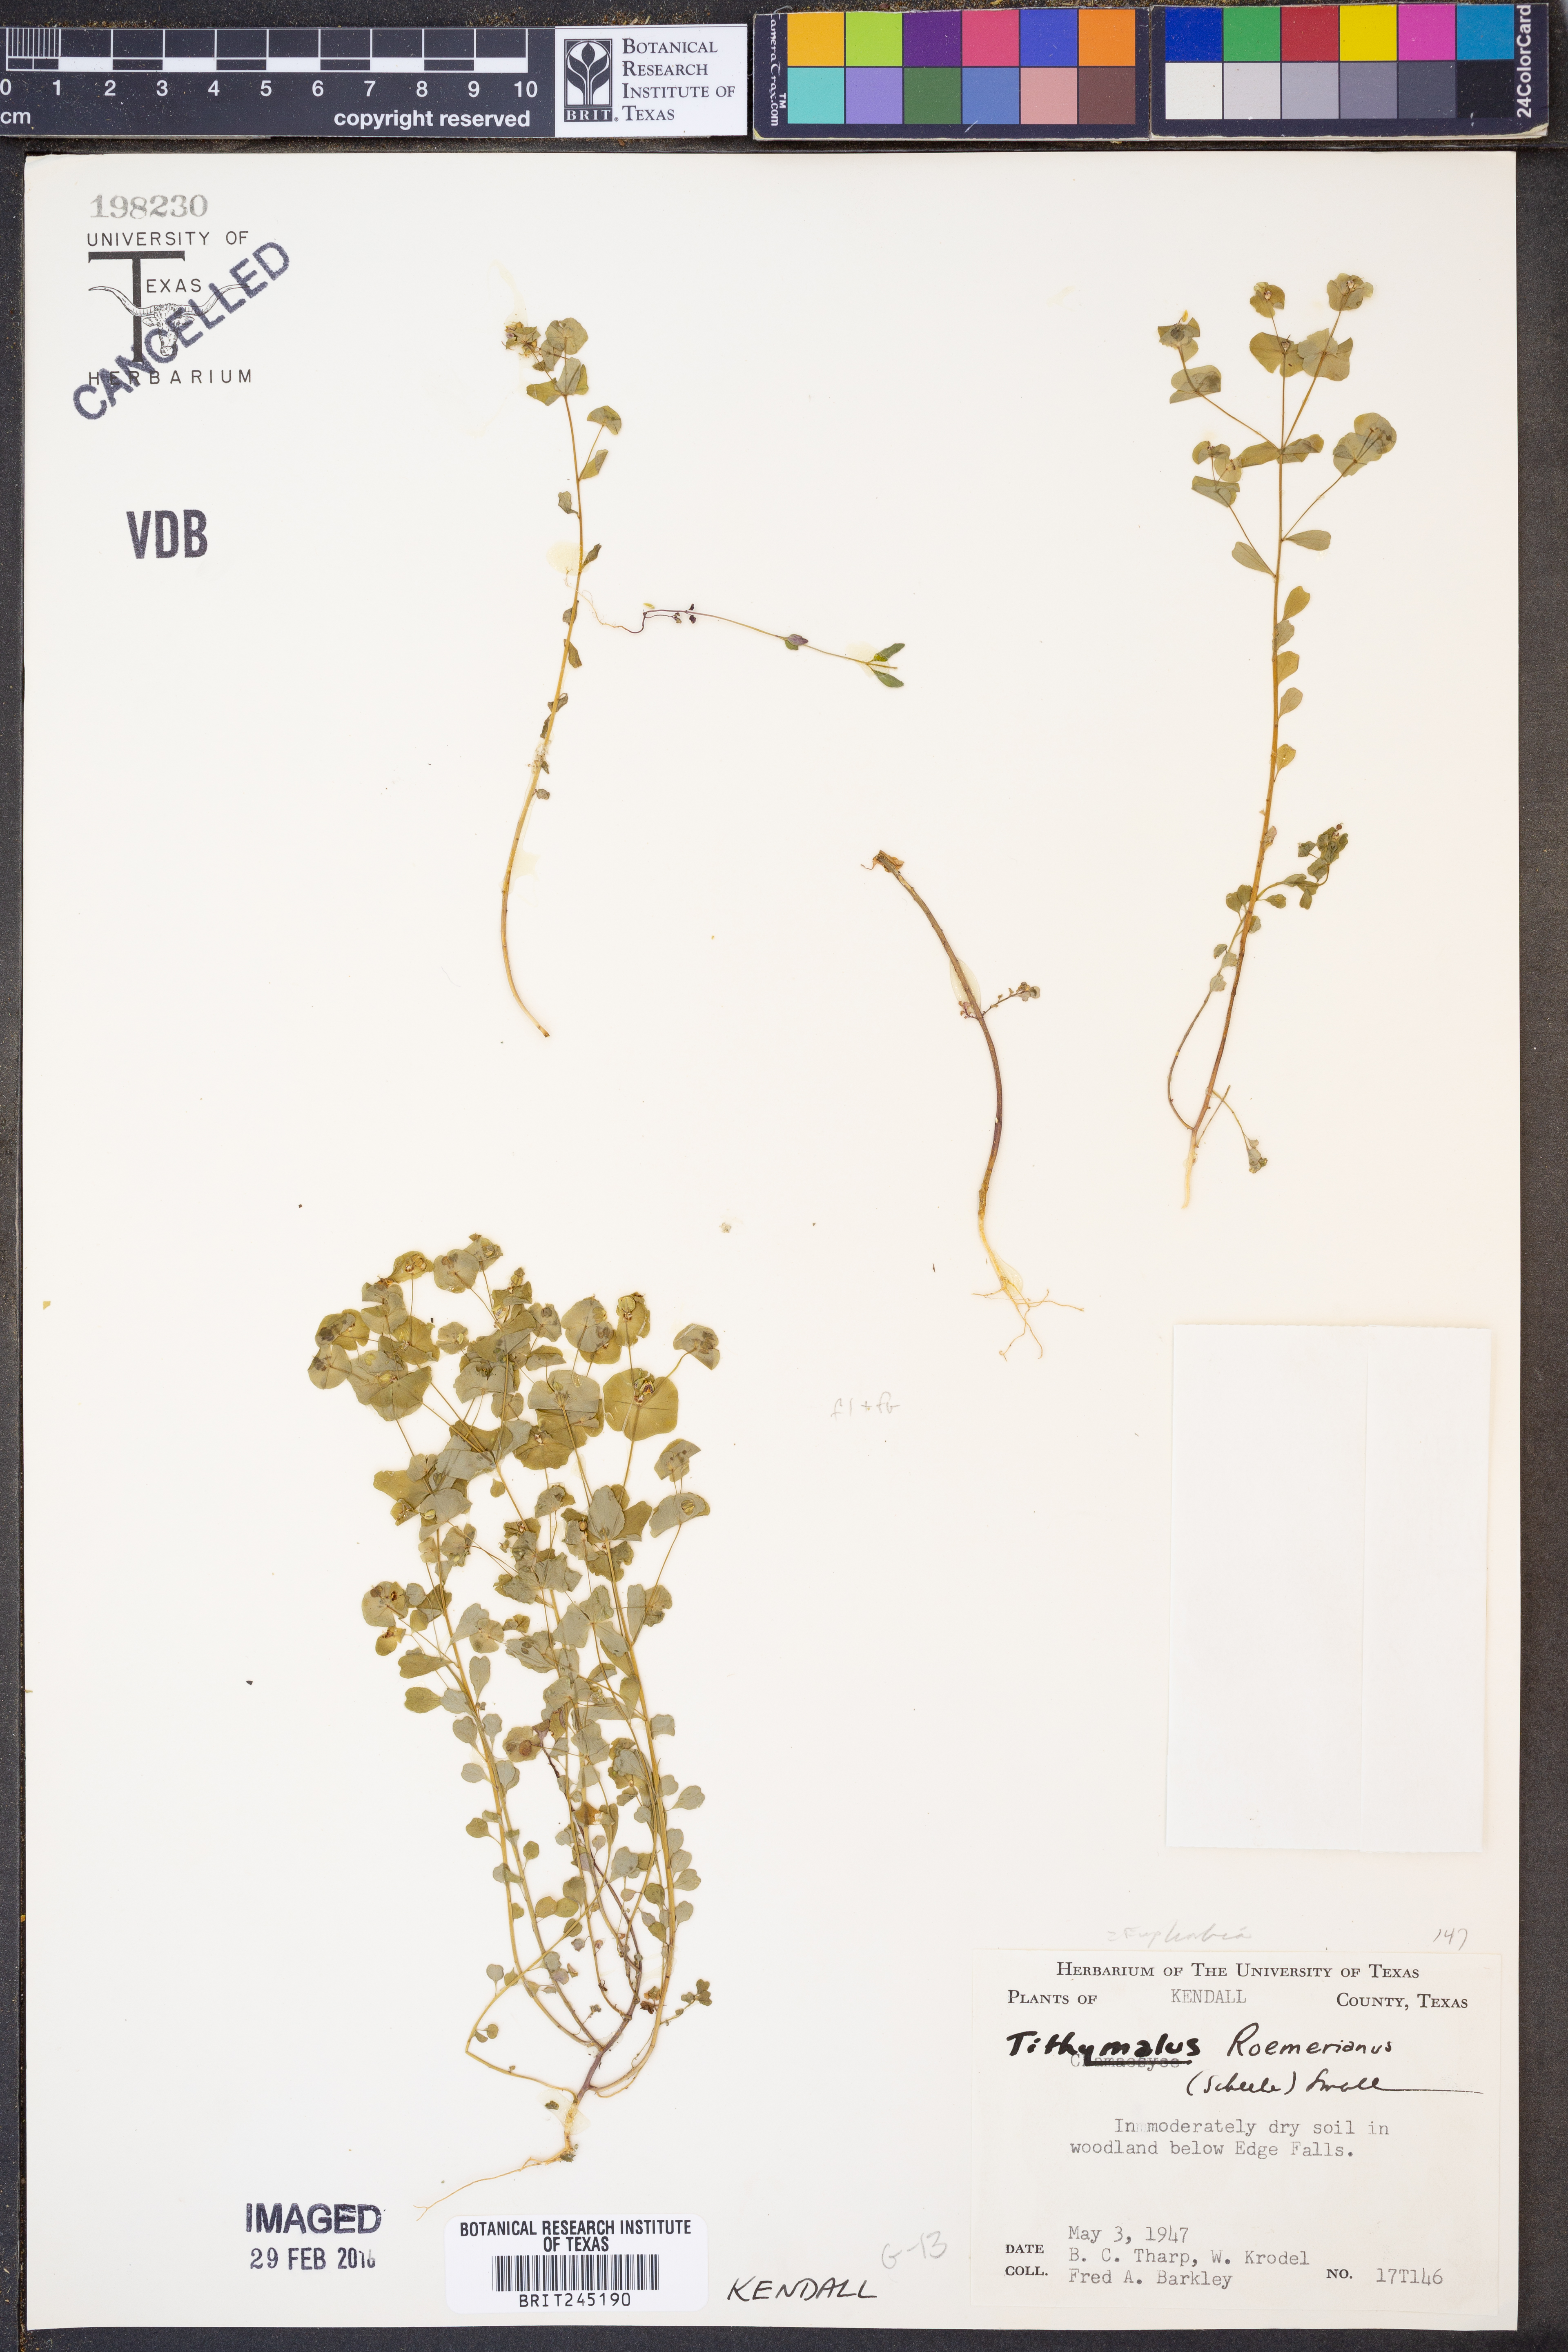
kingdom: Plantae
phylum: Tracheophyta
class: Magnoliopsida
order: Malpighiales
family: Euphorbiaceae
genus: Euphorbia
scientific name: Euphorbia roemeriana
